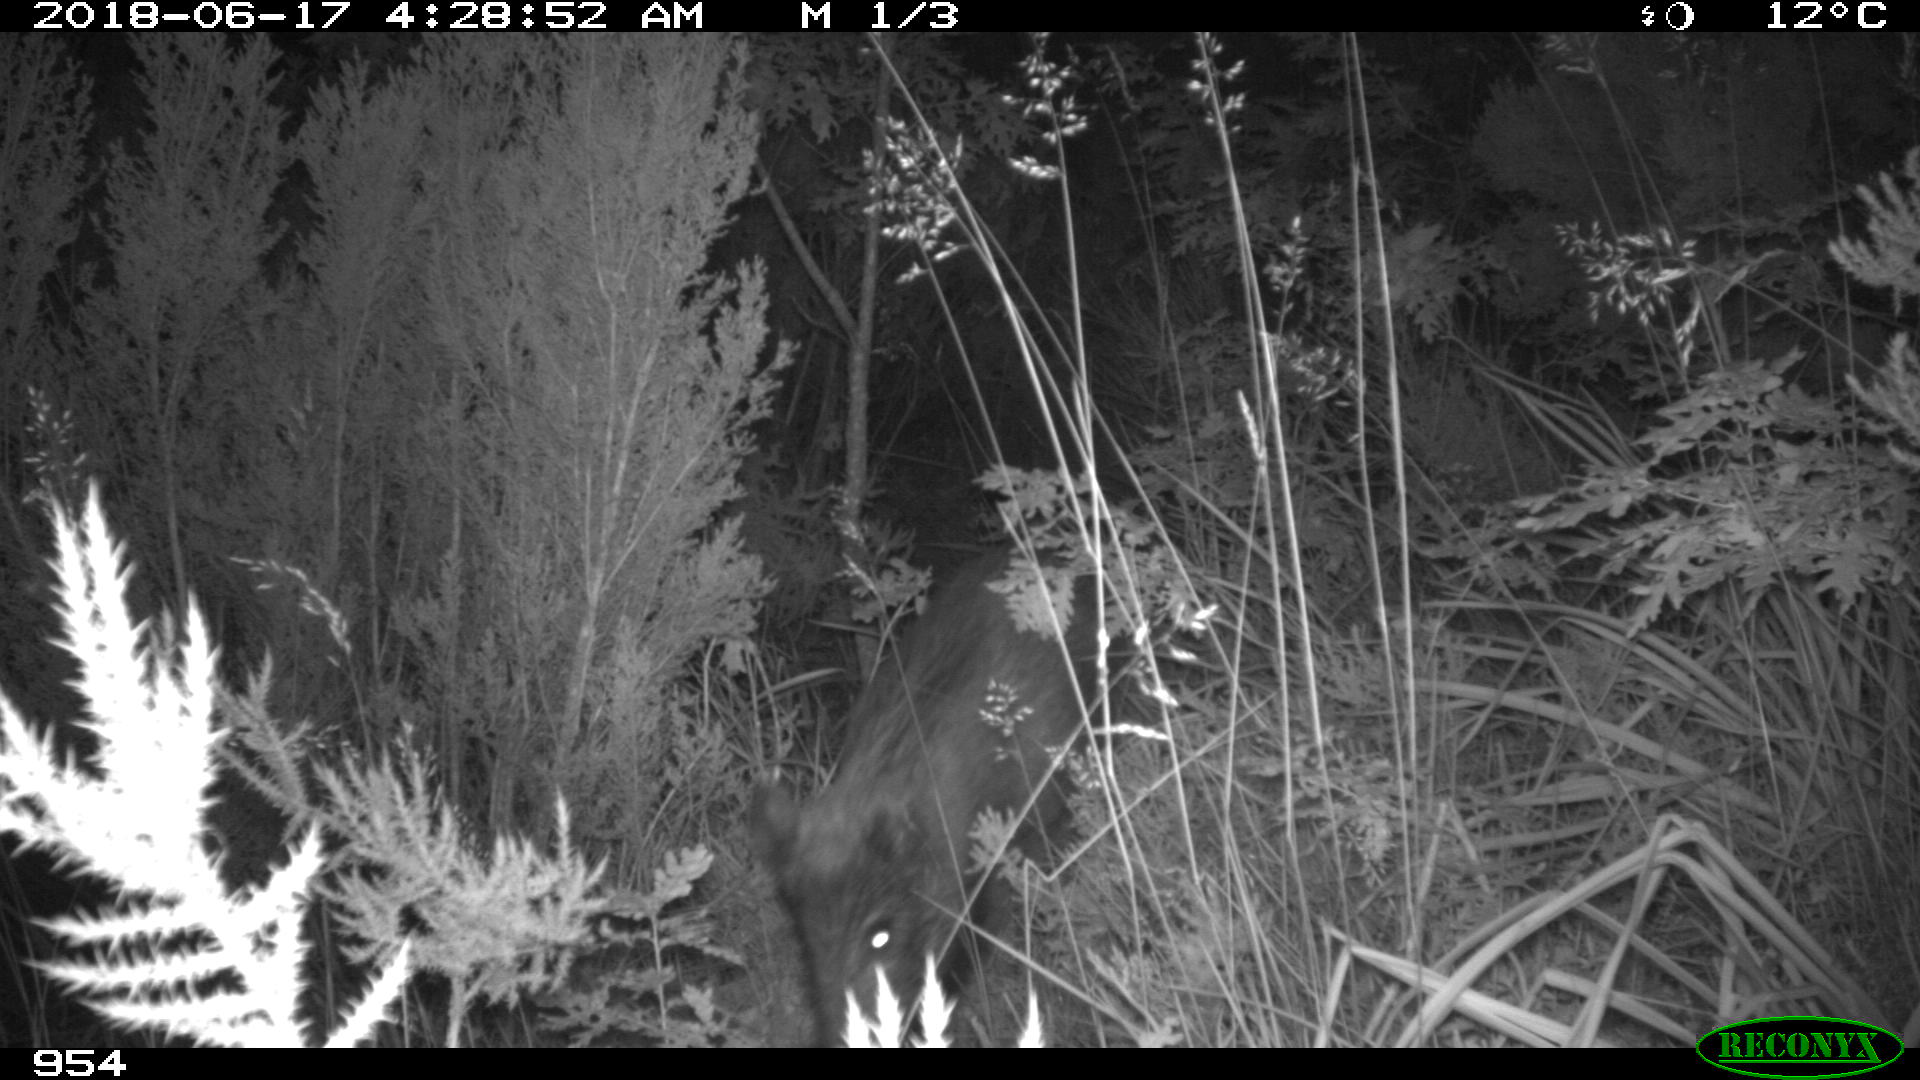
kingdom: Animalia
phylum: Chordata
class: Mammalia
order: Artiodactyla
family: Suidae
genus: Sus
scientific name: Sus scrofa
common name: Wild boar
